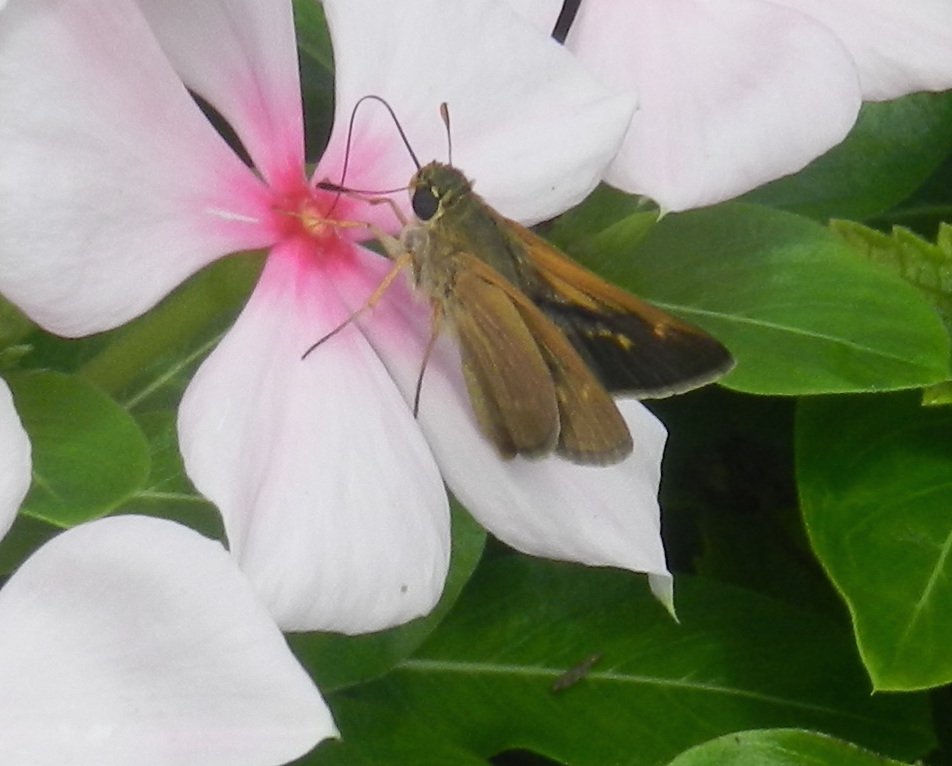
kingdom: Animalia
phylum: Arthropoda
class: Insecta
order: Lepidoptera
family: Hesperiidae
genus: Polites
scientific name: Polites
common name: Crossline Skipper
